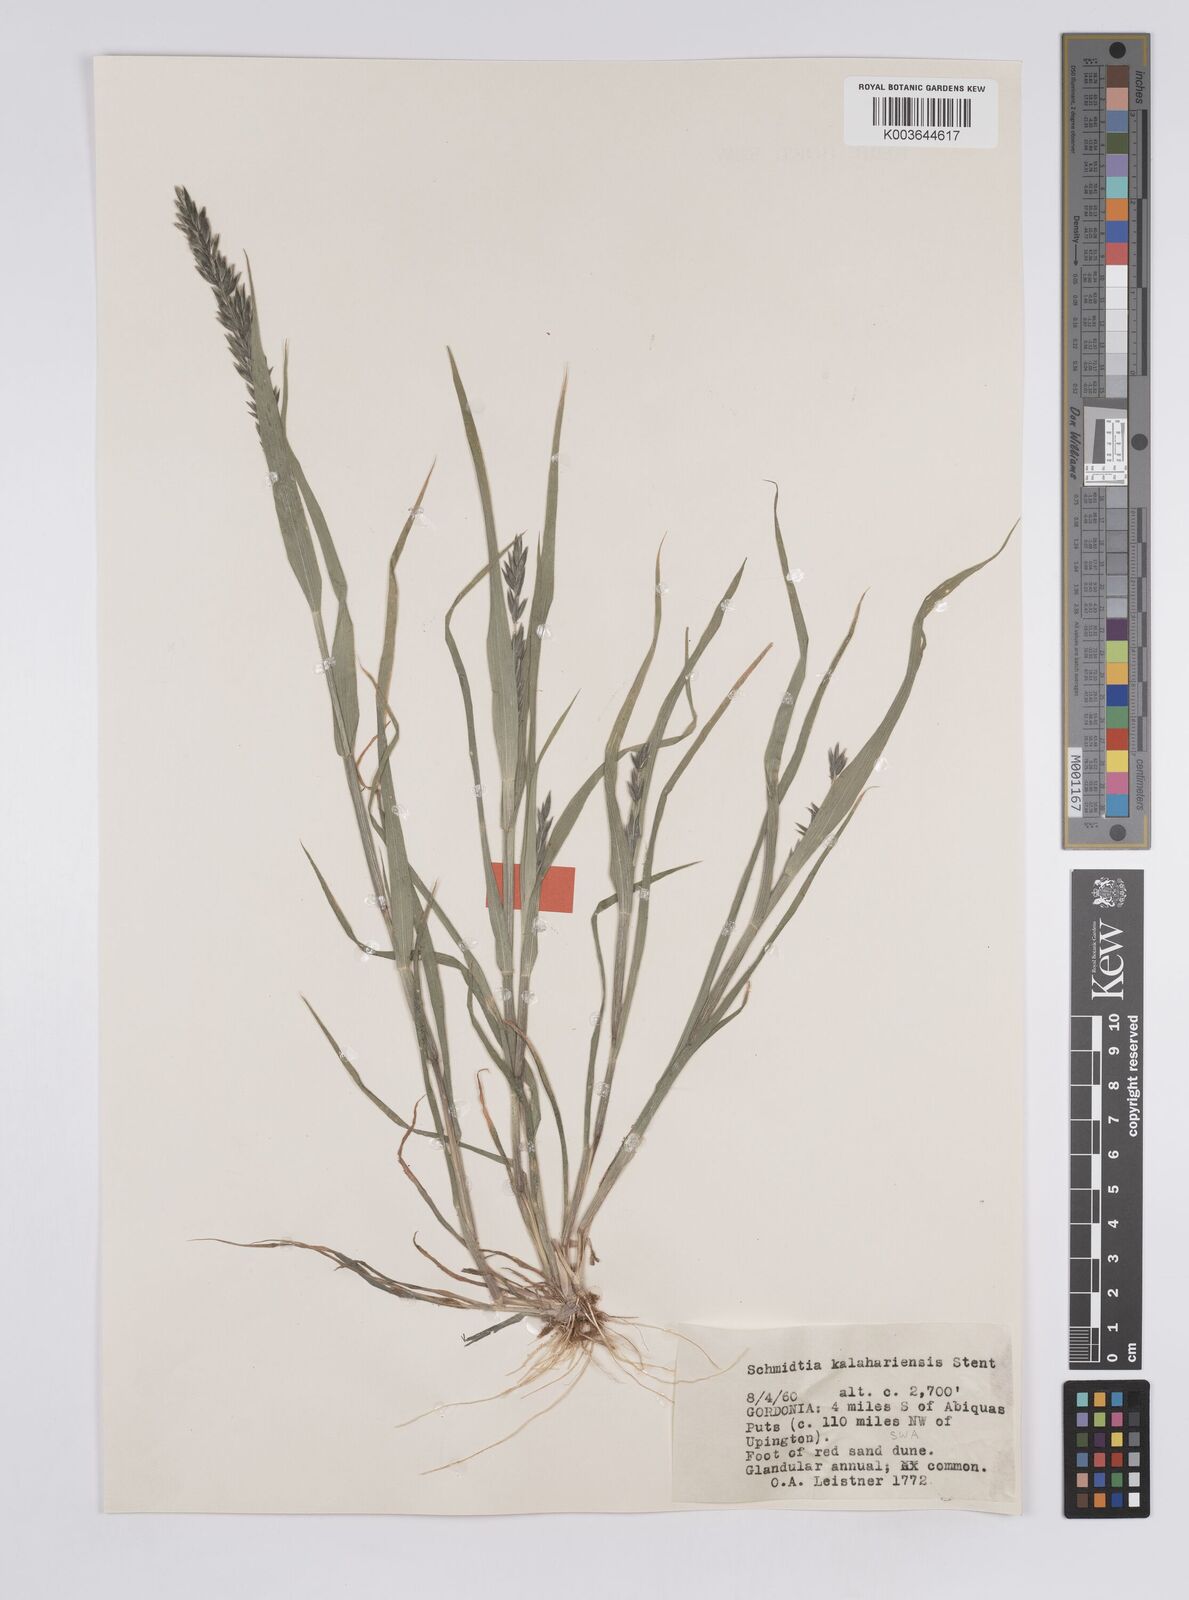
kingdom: Plantae
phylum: Tracheophyta
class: Liliopsida
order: Poales
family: Poaceae
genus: Schmidtia
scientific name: Schmidtia kalahariensis
